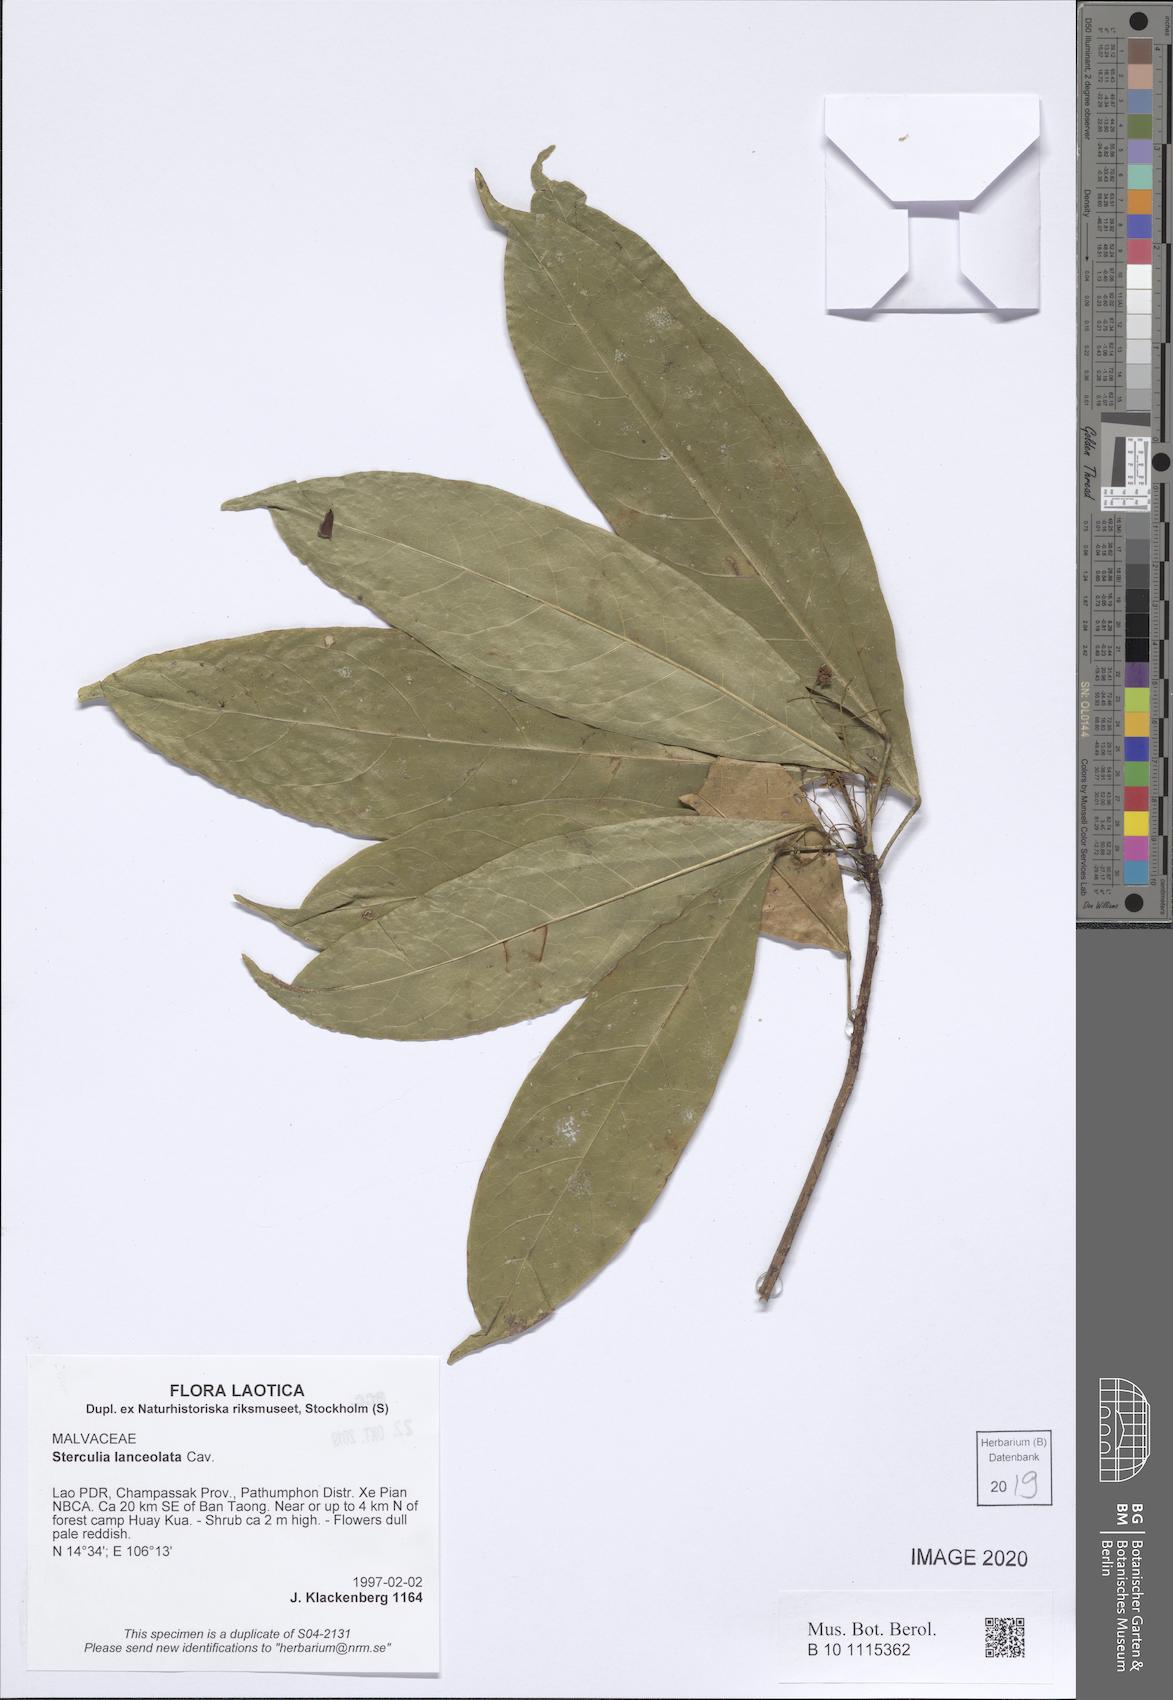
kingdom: Plantae
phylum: Tracheophyta
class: Magnoliopsida
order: Malvales
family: Malvaceae
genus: Sterculia
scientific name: Sterculia lanceolata
